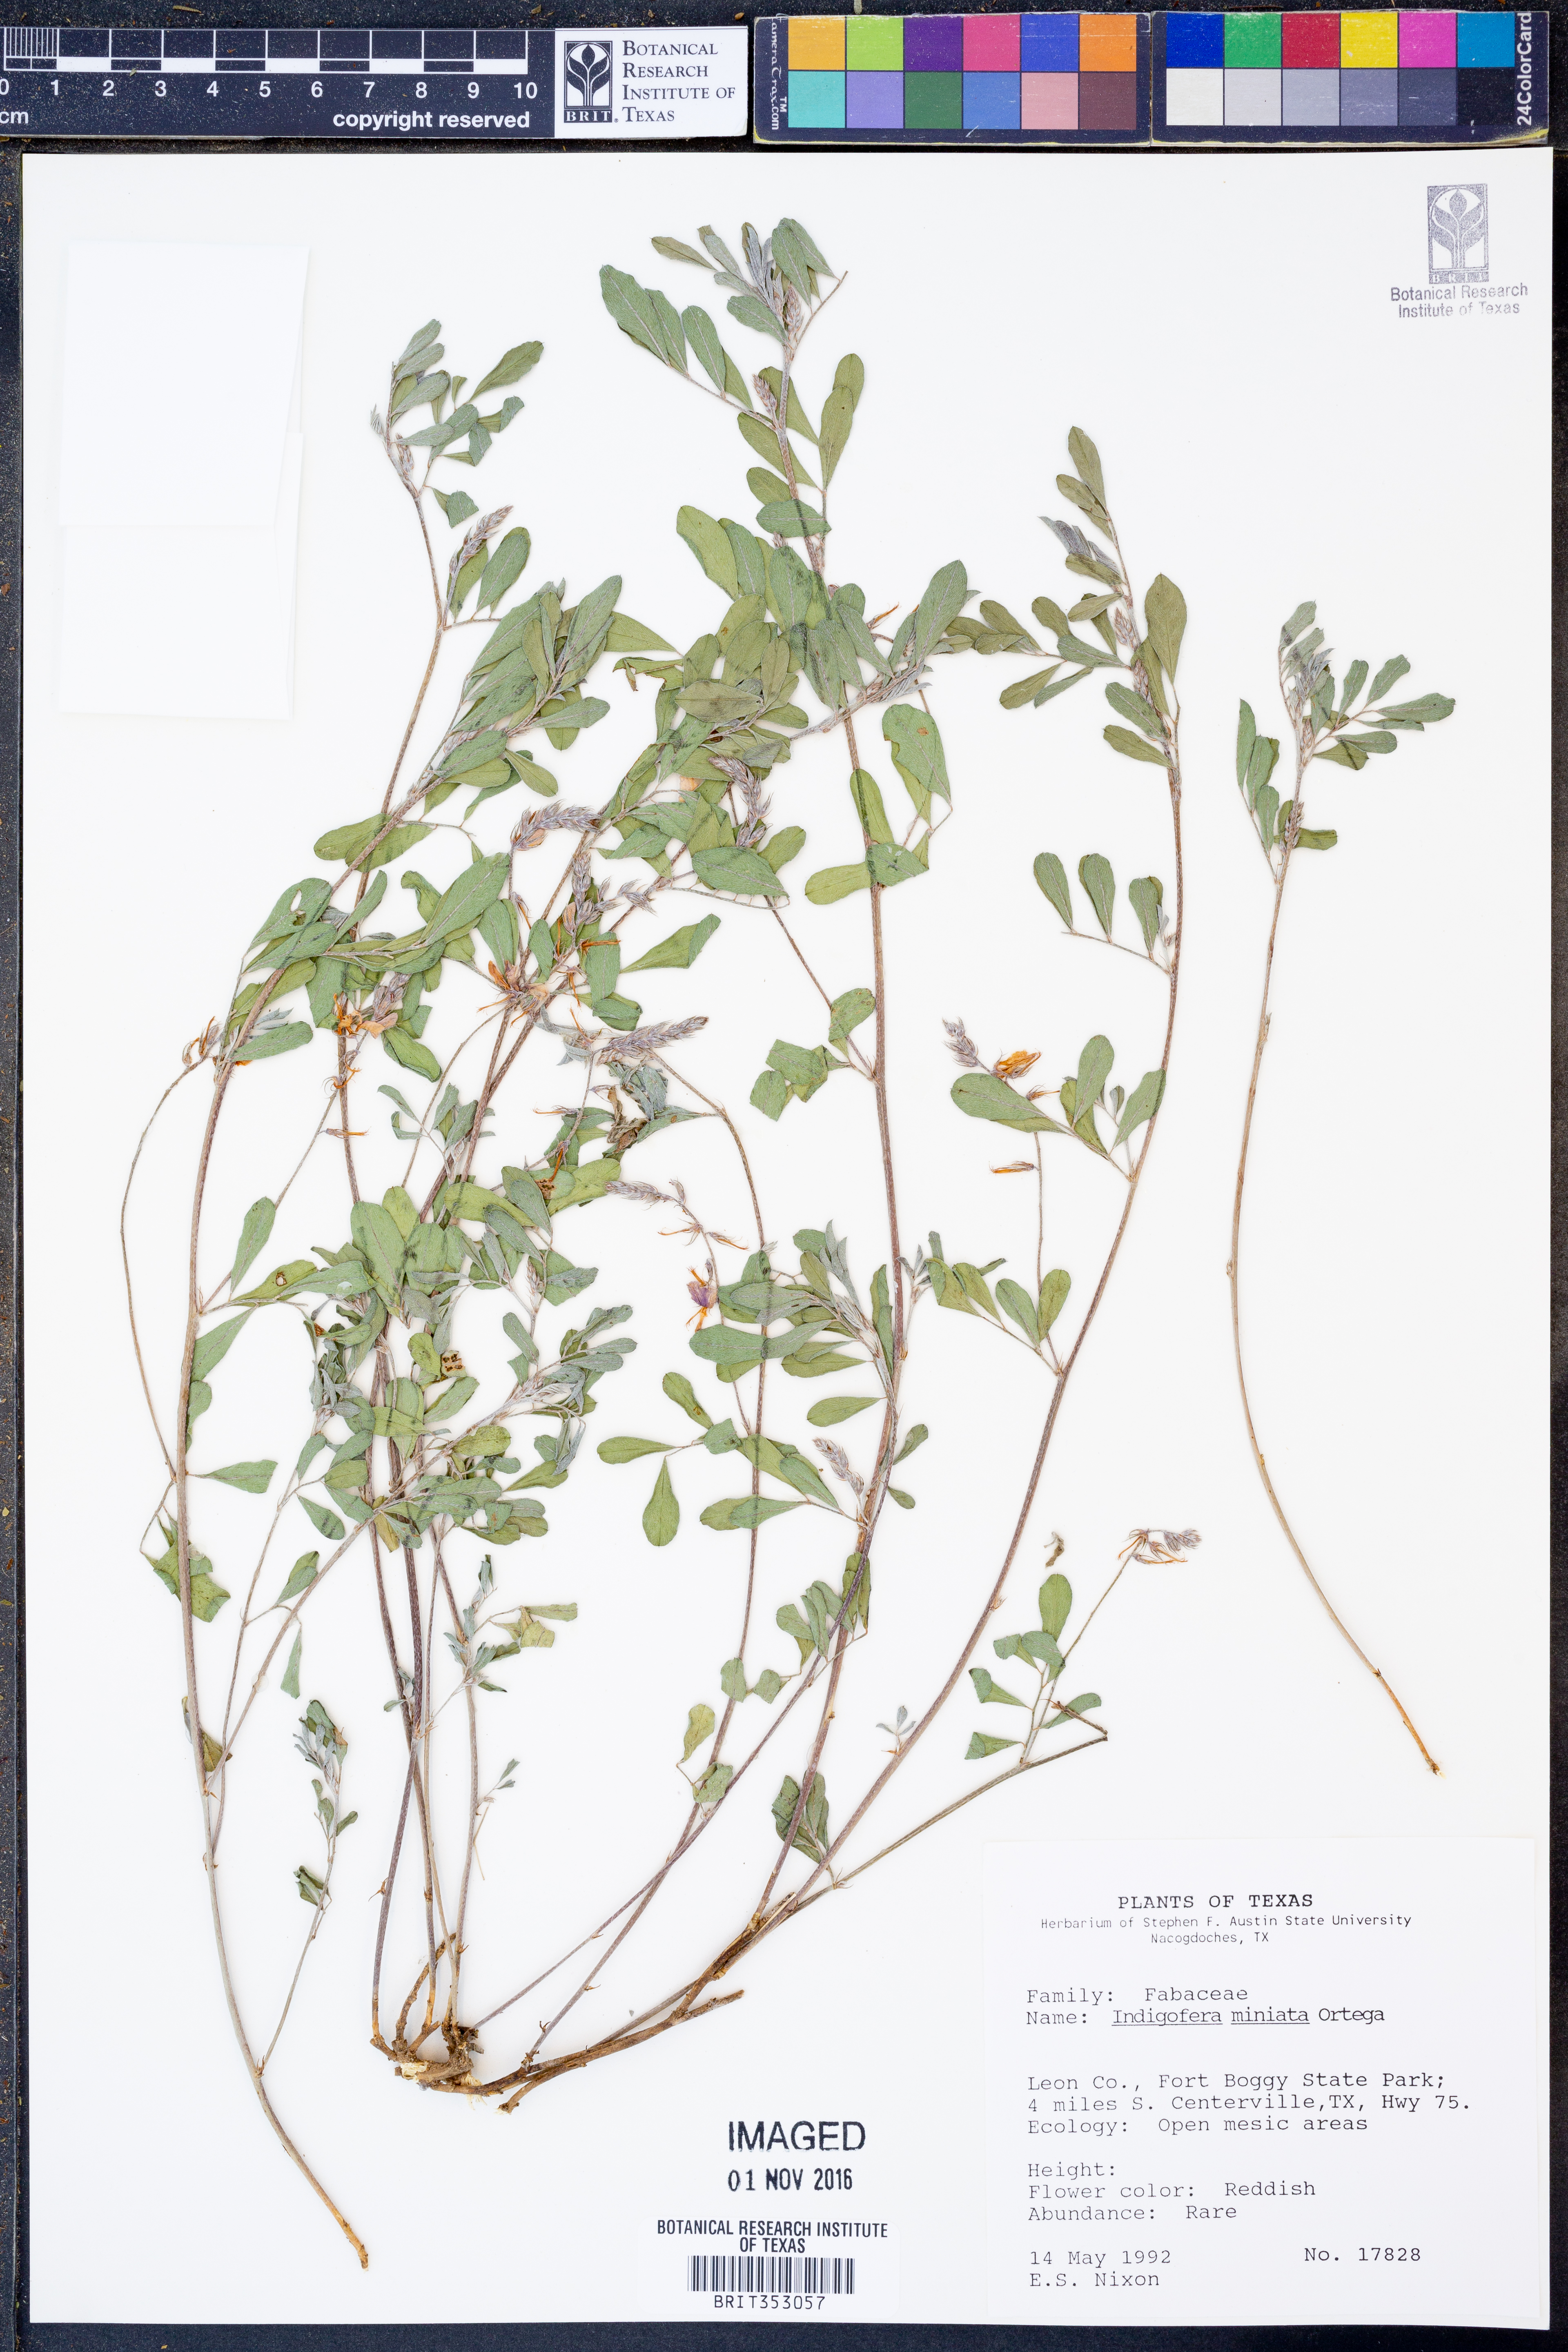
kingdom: Plantae
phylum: Tracheophyta
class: Magnoliopsida
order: Fabales
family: Fabaceae
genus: Indigofera
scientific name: Indigofera miniata
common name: Coast indigo
